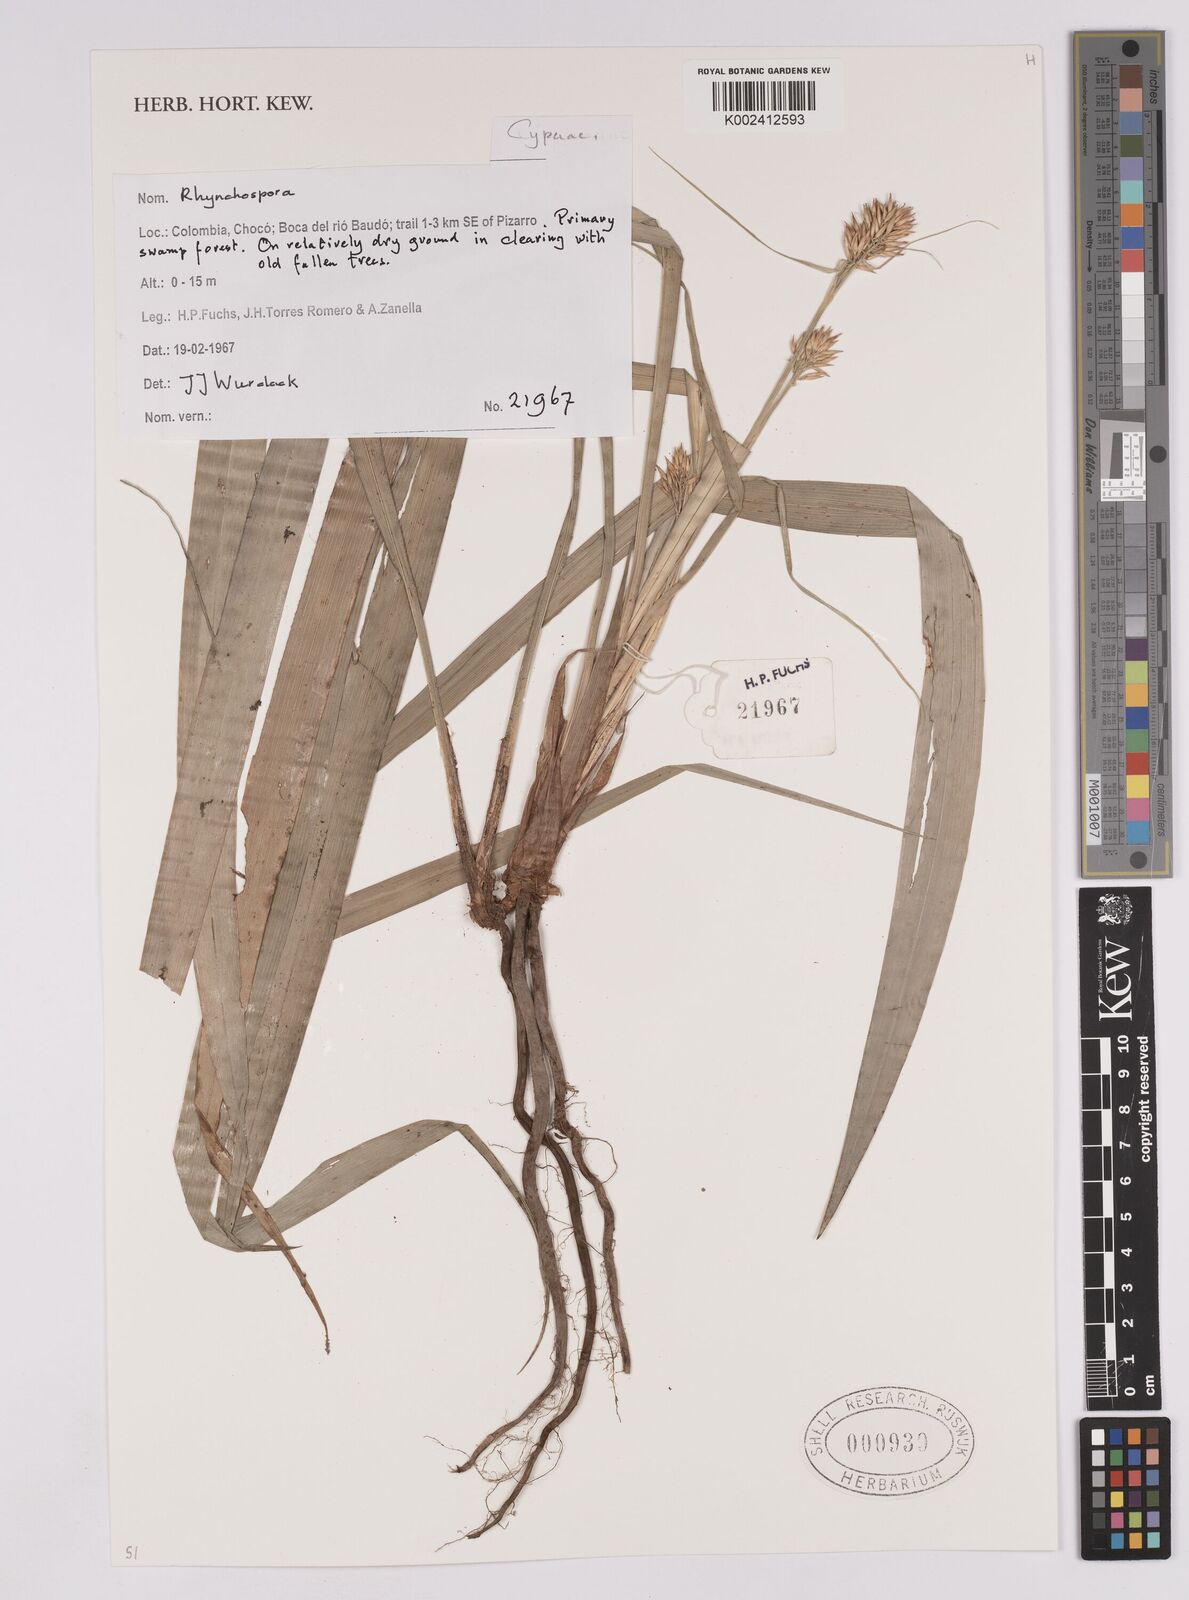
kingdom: Plantae
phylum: Tracheophyta
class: Liliopsida
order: Poales
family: Cyperaceae
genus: Rhynchospora
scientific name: Rhynchospora
